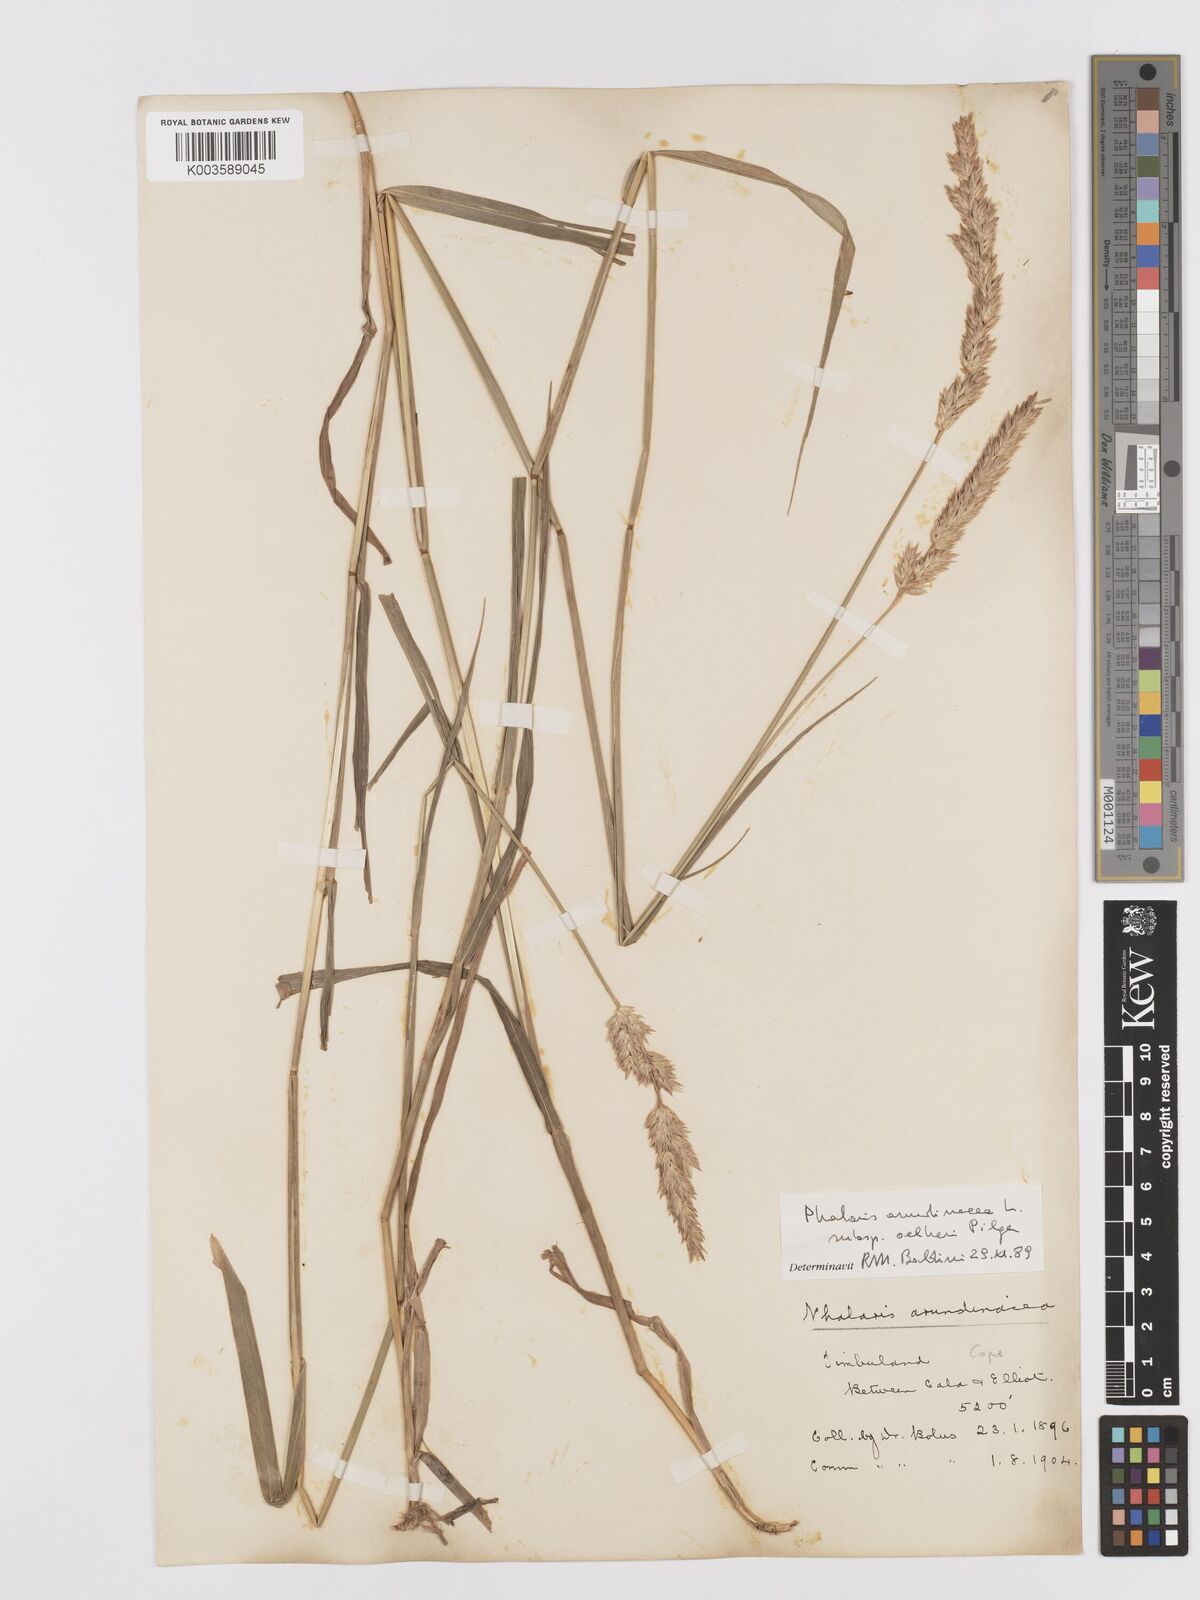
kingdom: Plantae
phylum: Tracheophyta
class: Liliopsida
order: Poales
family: Poaceae
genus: Phalaris
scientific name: Phalaris arundinacea
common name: Reed canary-grass
